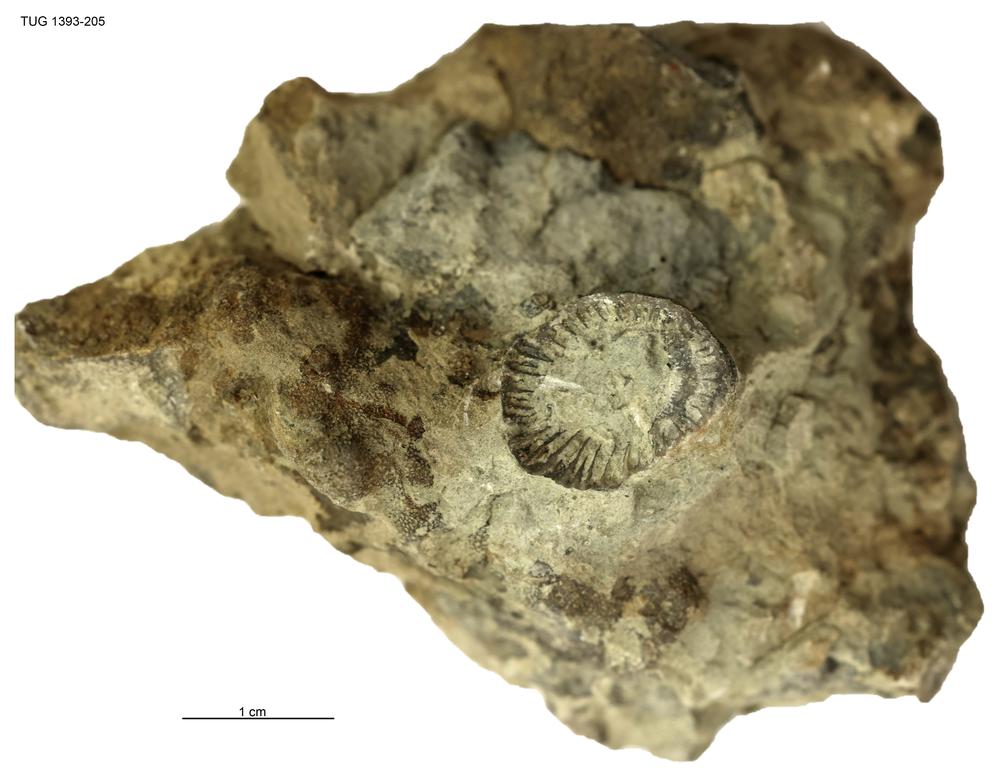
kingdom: Animalia
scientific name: Animalia
